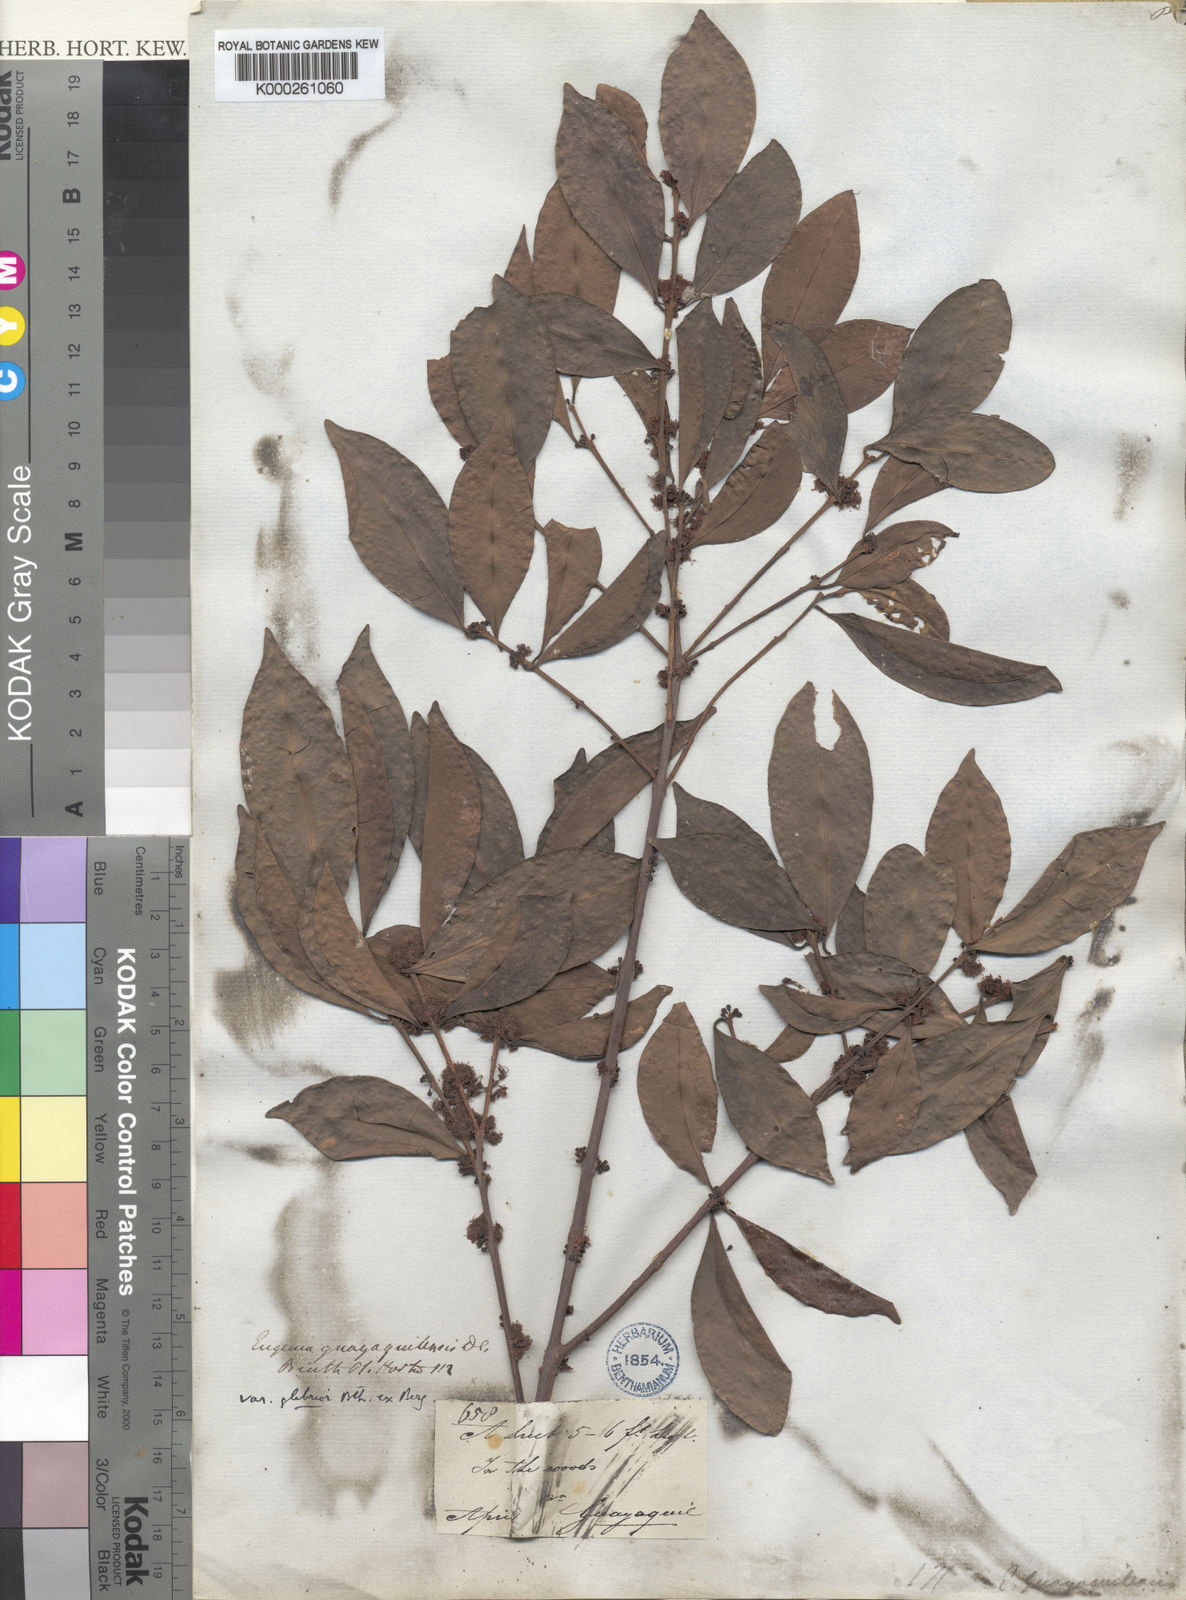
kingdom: Plantae
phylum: Tracheophyta
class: Magnoliopsida
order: Myrtales
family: Myrtaceae
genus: Eugenia
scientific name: Eugenia guayaquilensis
